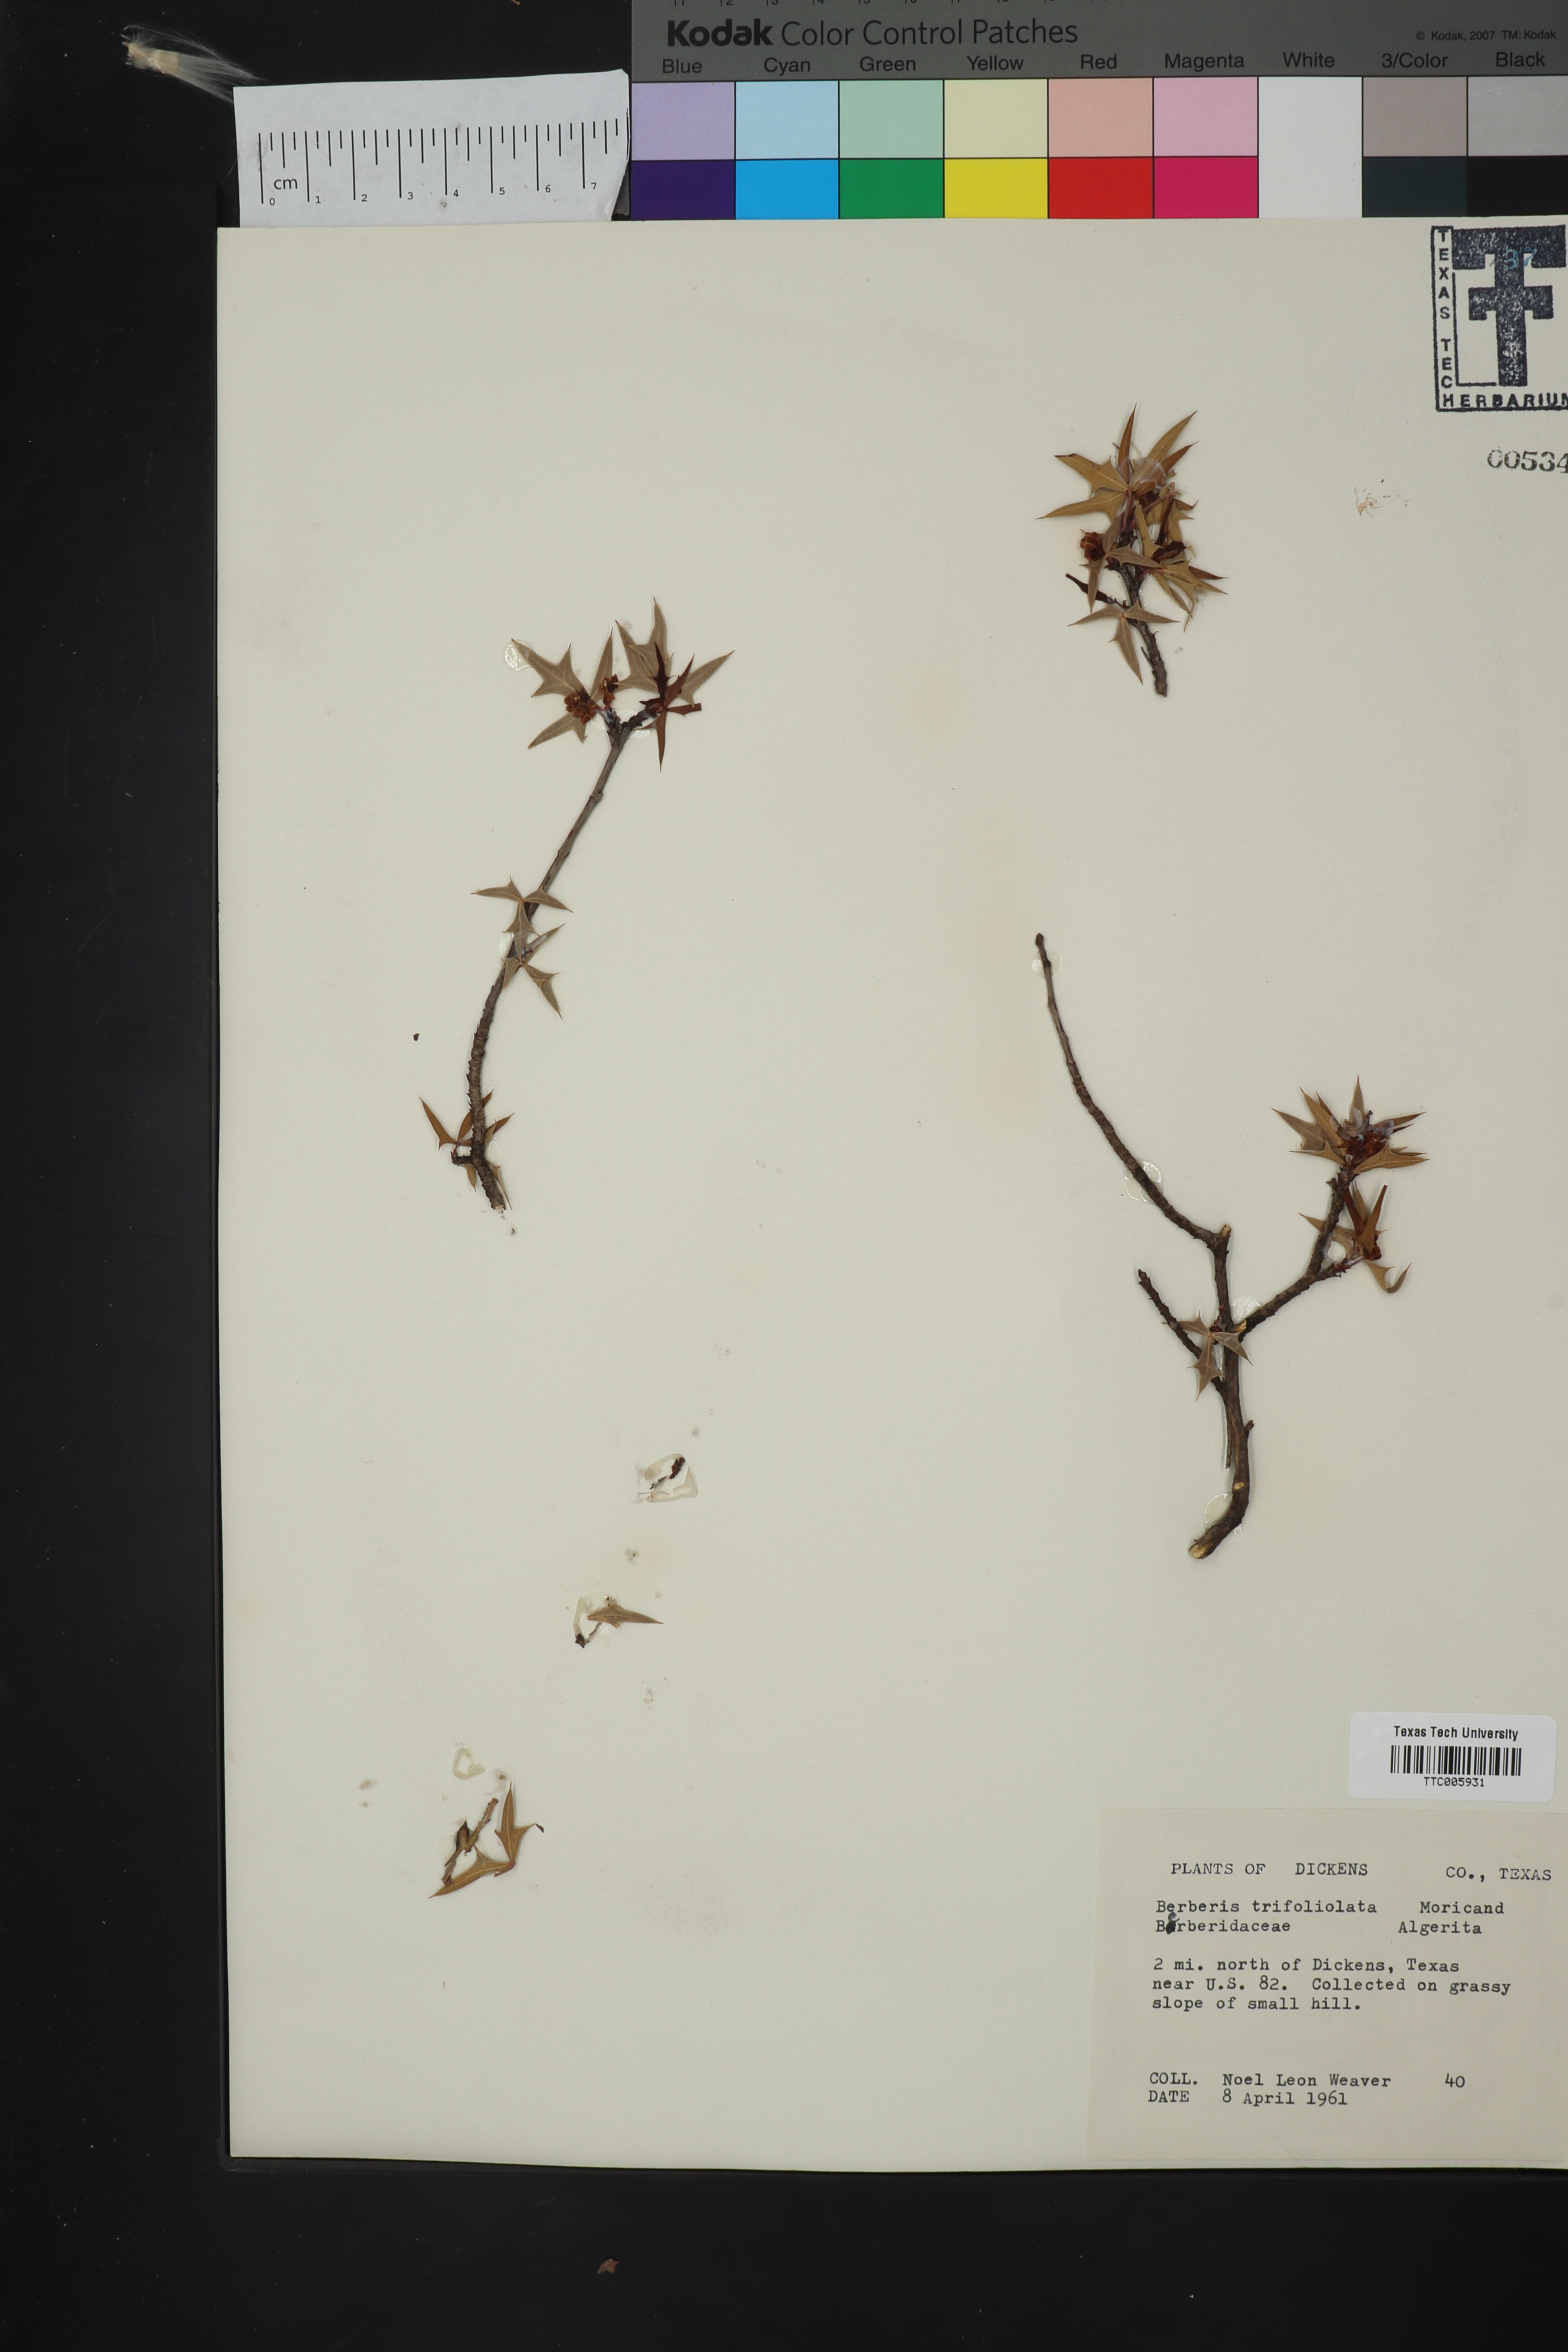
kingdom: Plantae
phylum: Tracheophyta
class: Magnoliopsida
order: Ranunculales
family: Berberidaceae
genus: Alloberberis
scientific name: Alloberberis trifoliolata
